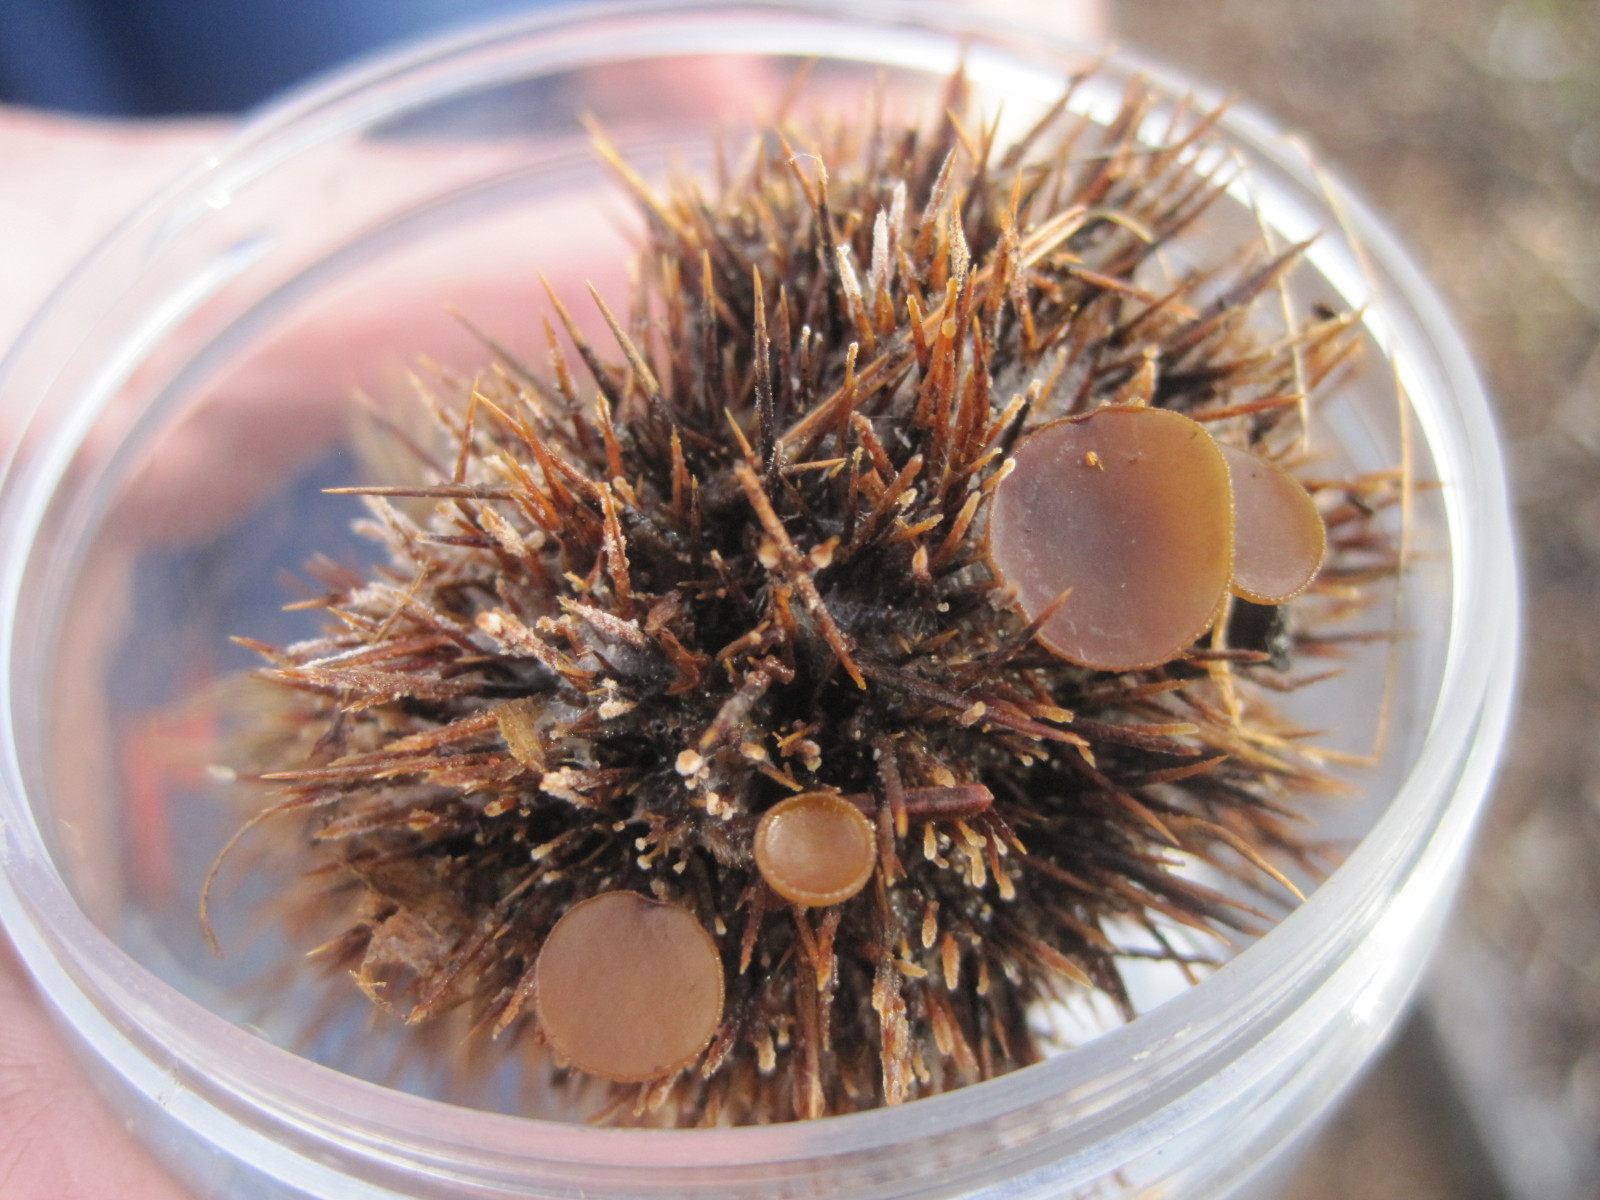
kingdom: Fungi
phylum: Ascomycota
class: Leotiomycetes
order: Helotiales
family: Rutstroemiaceae
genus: Lanzia
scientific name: Lanzia echinophila
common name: kastanie-brunskive
